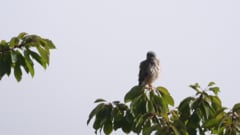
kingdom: Animalia
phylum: Chordata
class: Aves
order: Falconiformes
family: Falconidae
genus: Falco
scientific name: Falco tinnunculus
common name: Common kestrel
